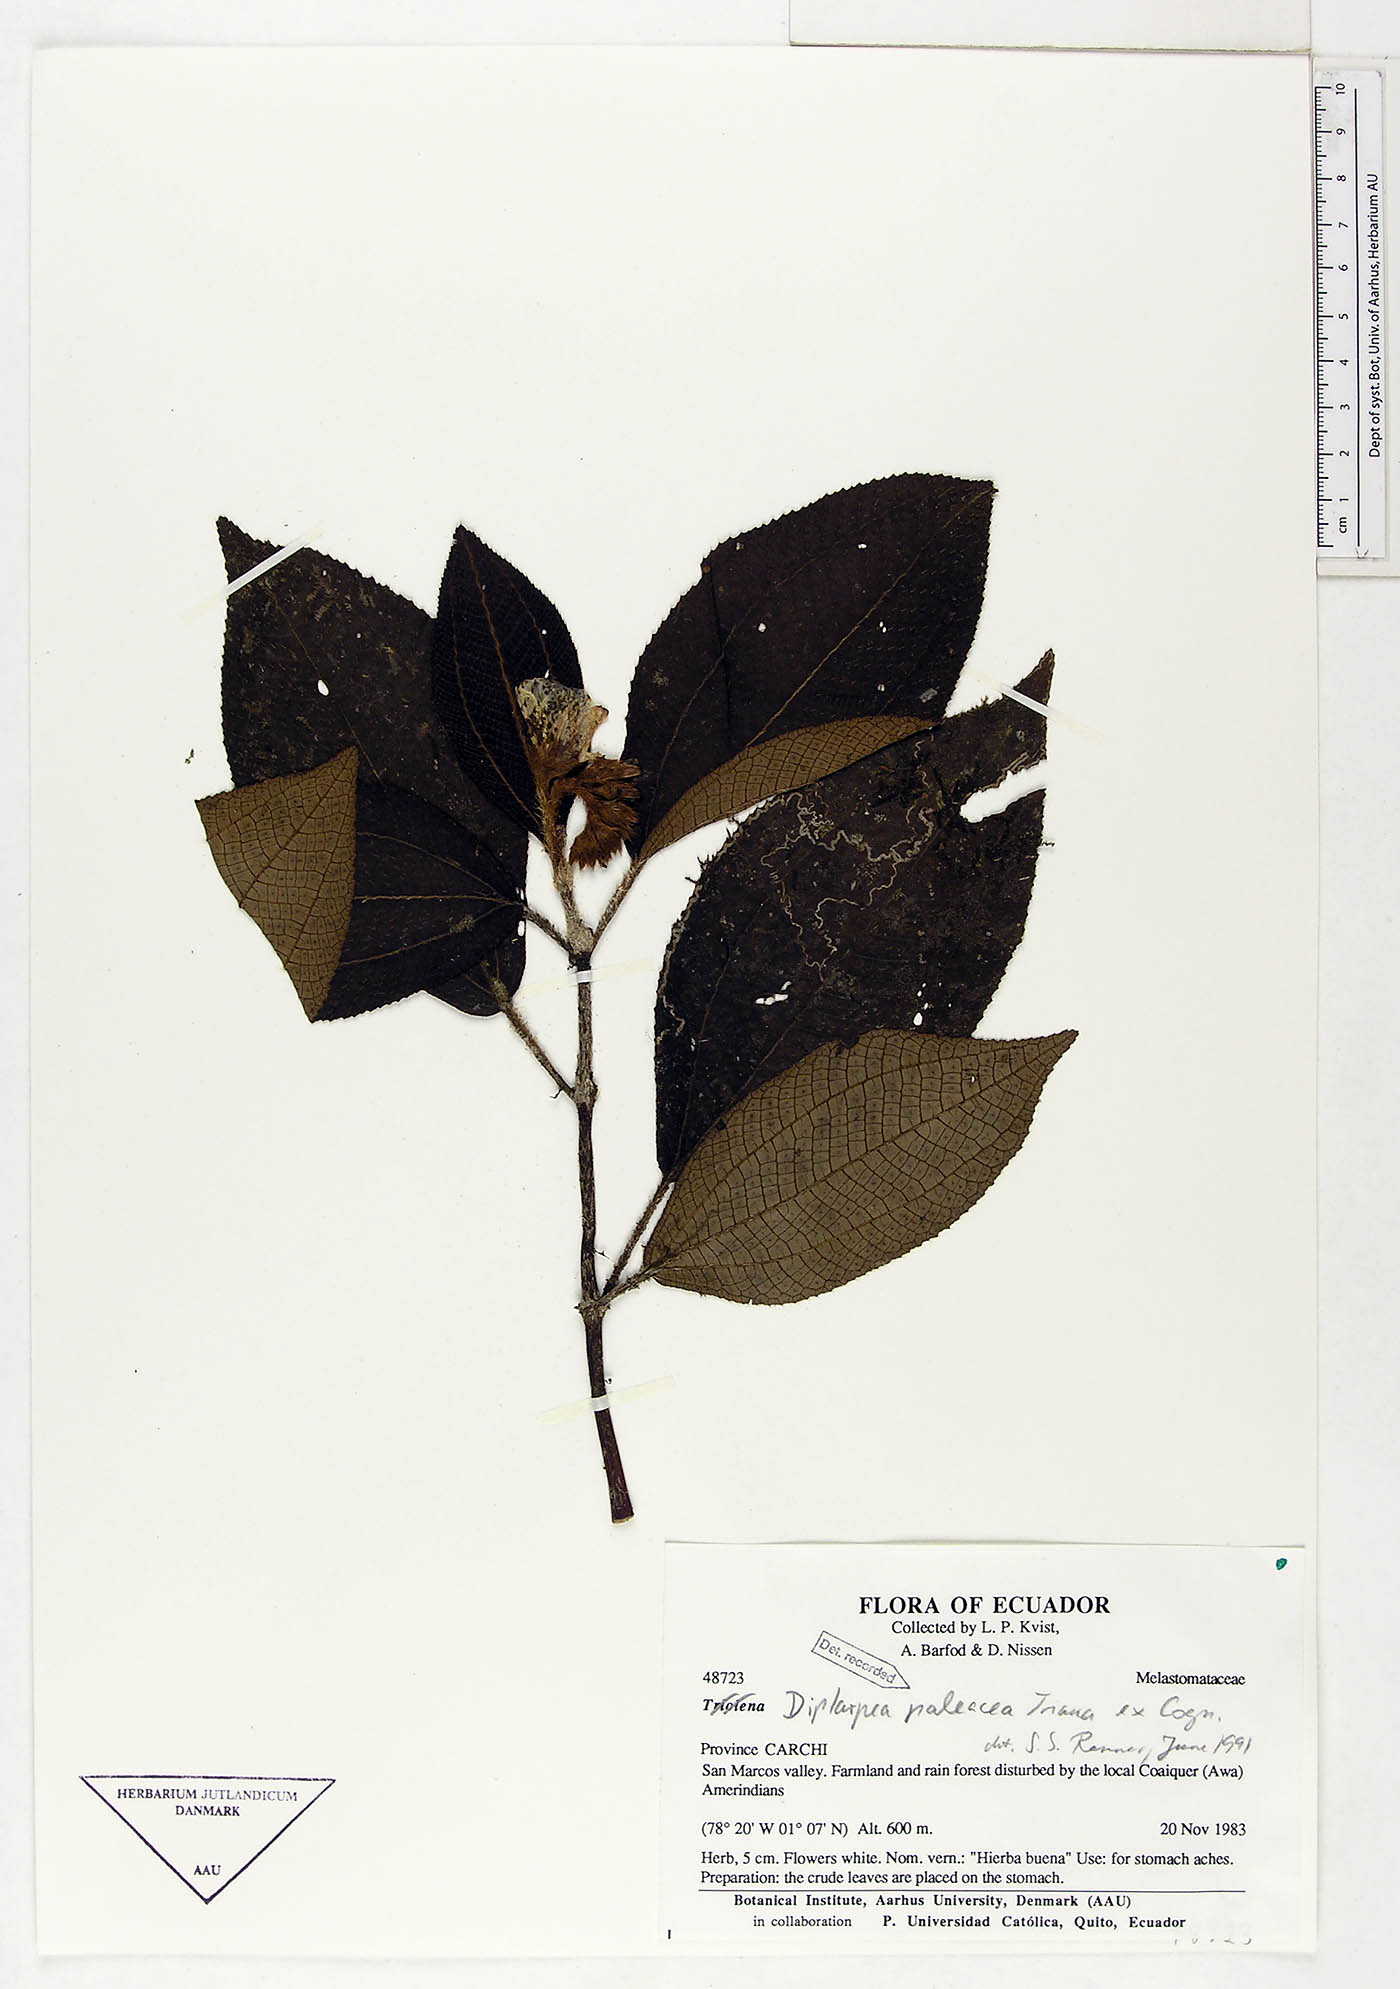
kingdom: Plantae
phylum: Tracheophyta
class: Magnoliopsida
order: Myrtales
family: Melastomataceae
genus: Andesanthus
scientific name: Andesanthus paleaceus
